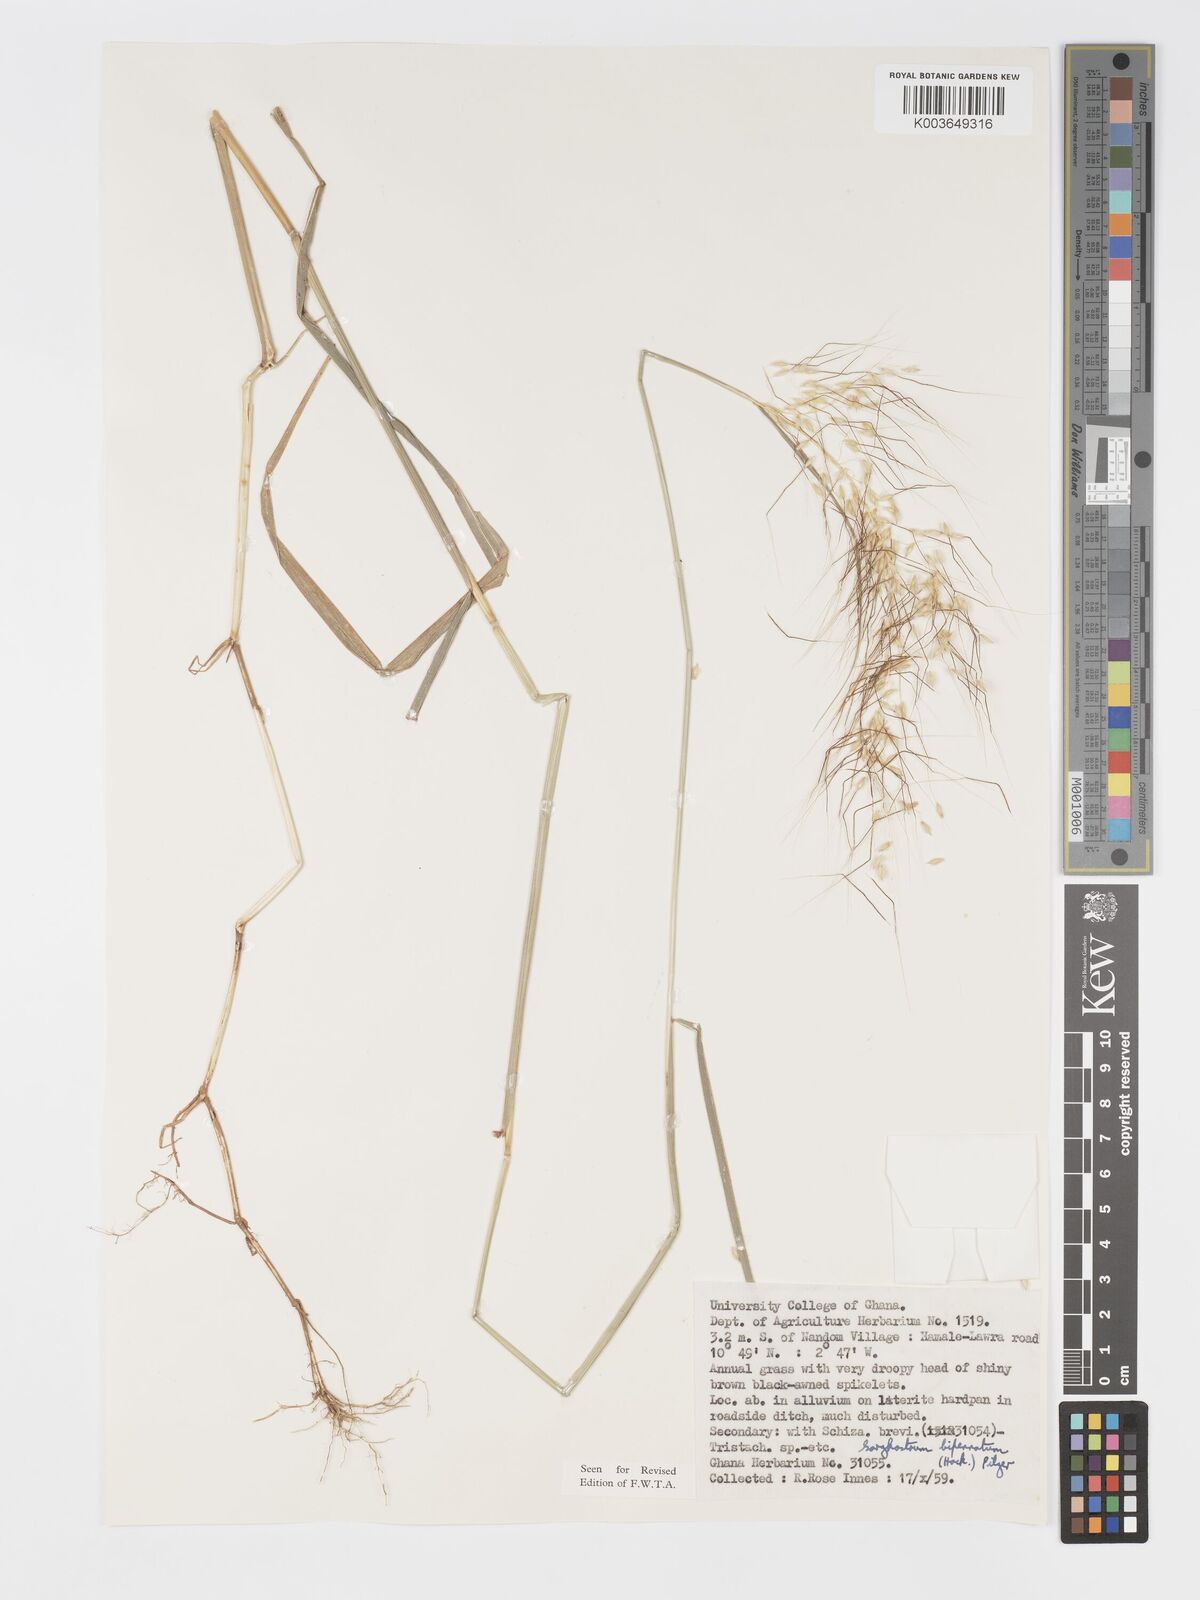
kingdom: Plantae
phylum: Tracheophyta
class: Liliopsida
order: Poales
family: Poaceae
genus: Sorghastrum
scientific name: Sorghastrum incompletum
